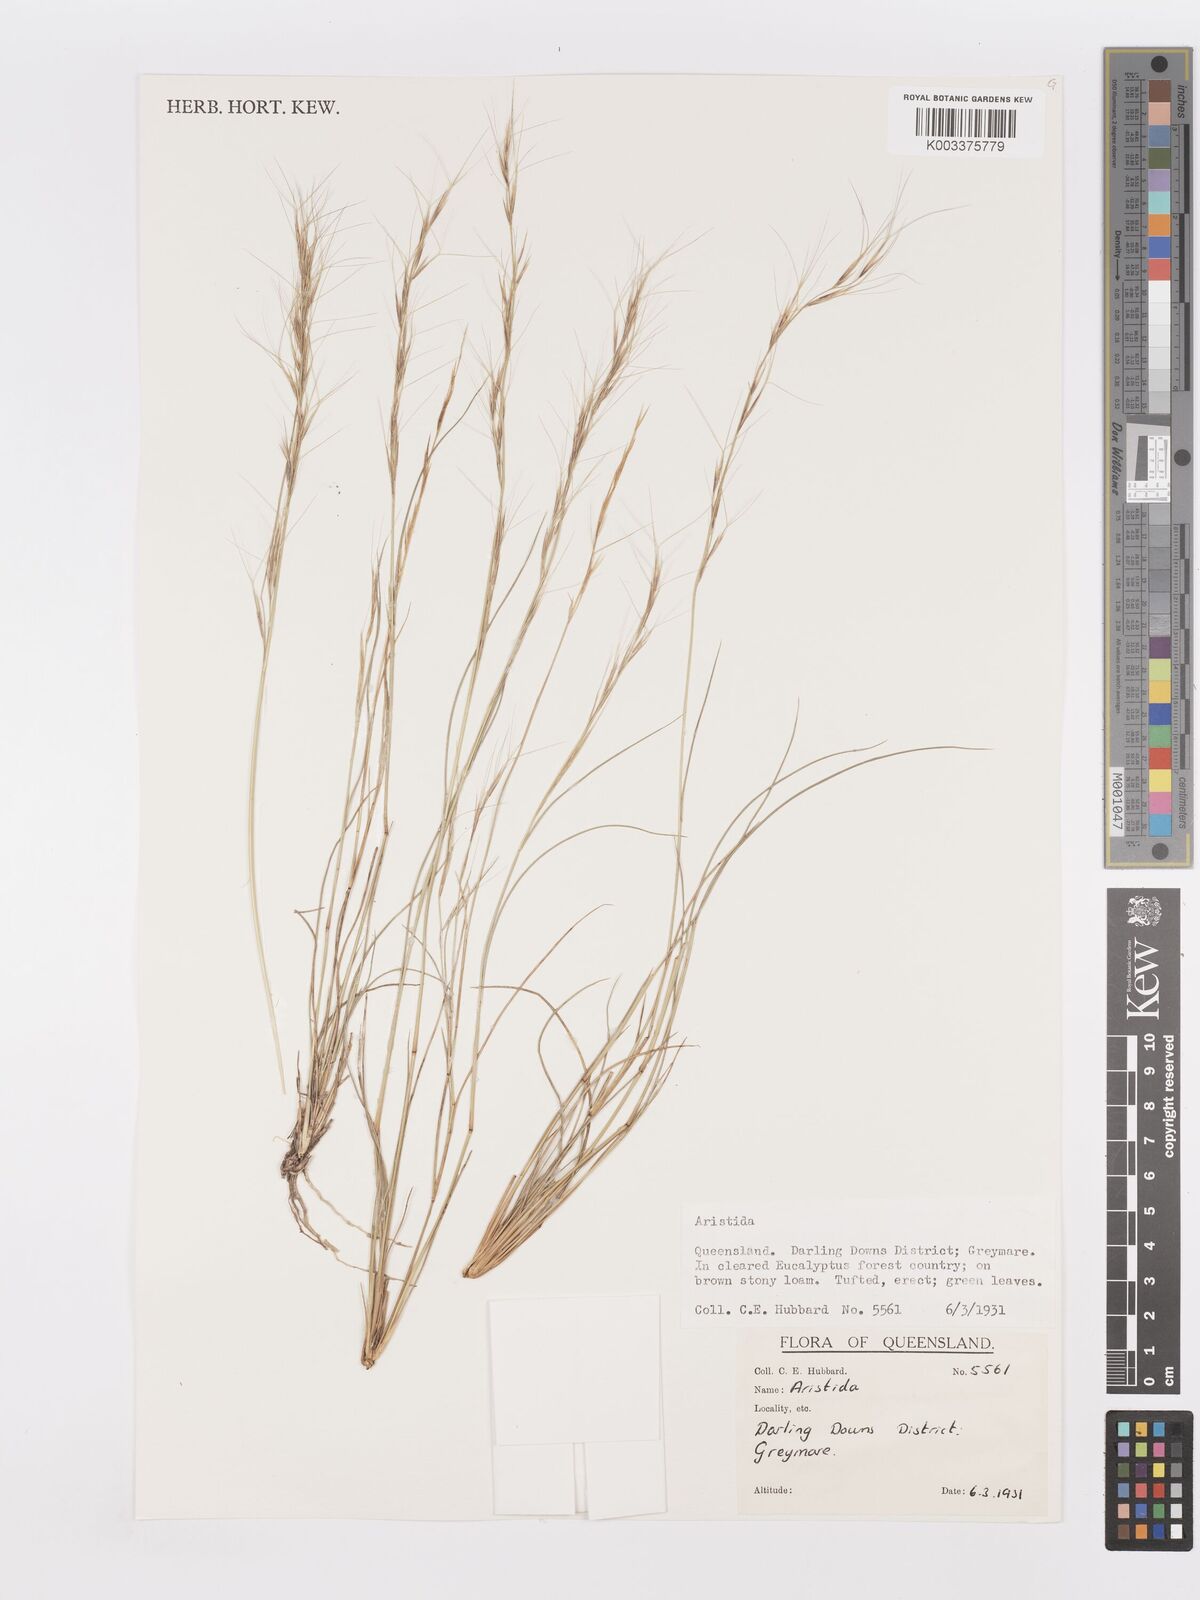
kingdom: Plantae
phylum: Tracheophyta
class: Liliopsida
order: Poales
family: Poaceae
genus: Aristida
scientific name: Aristida
